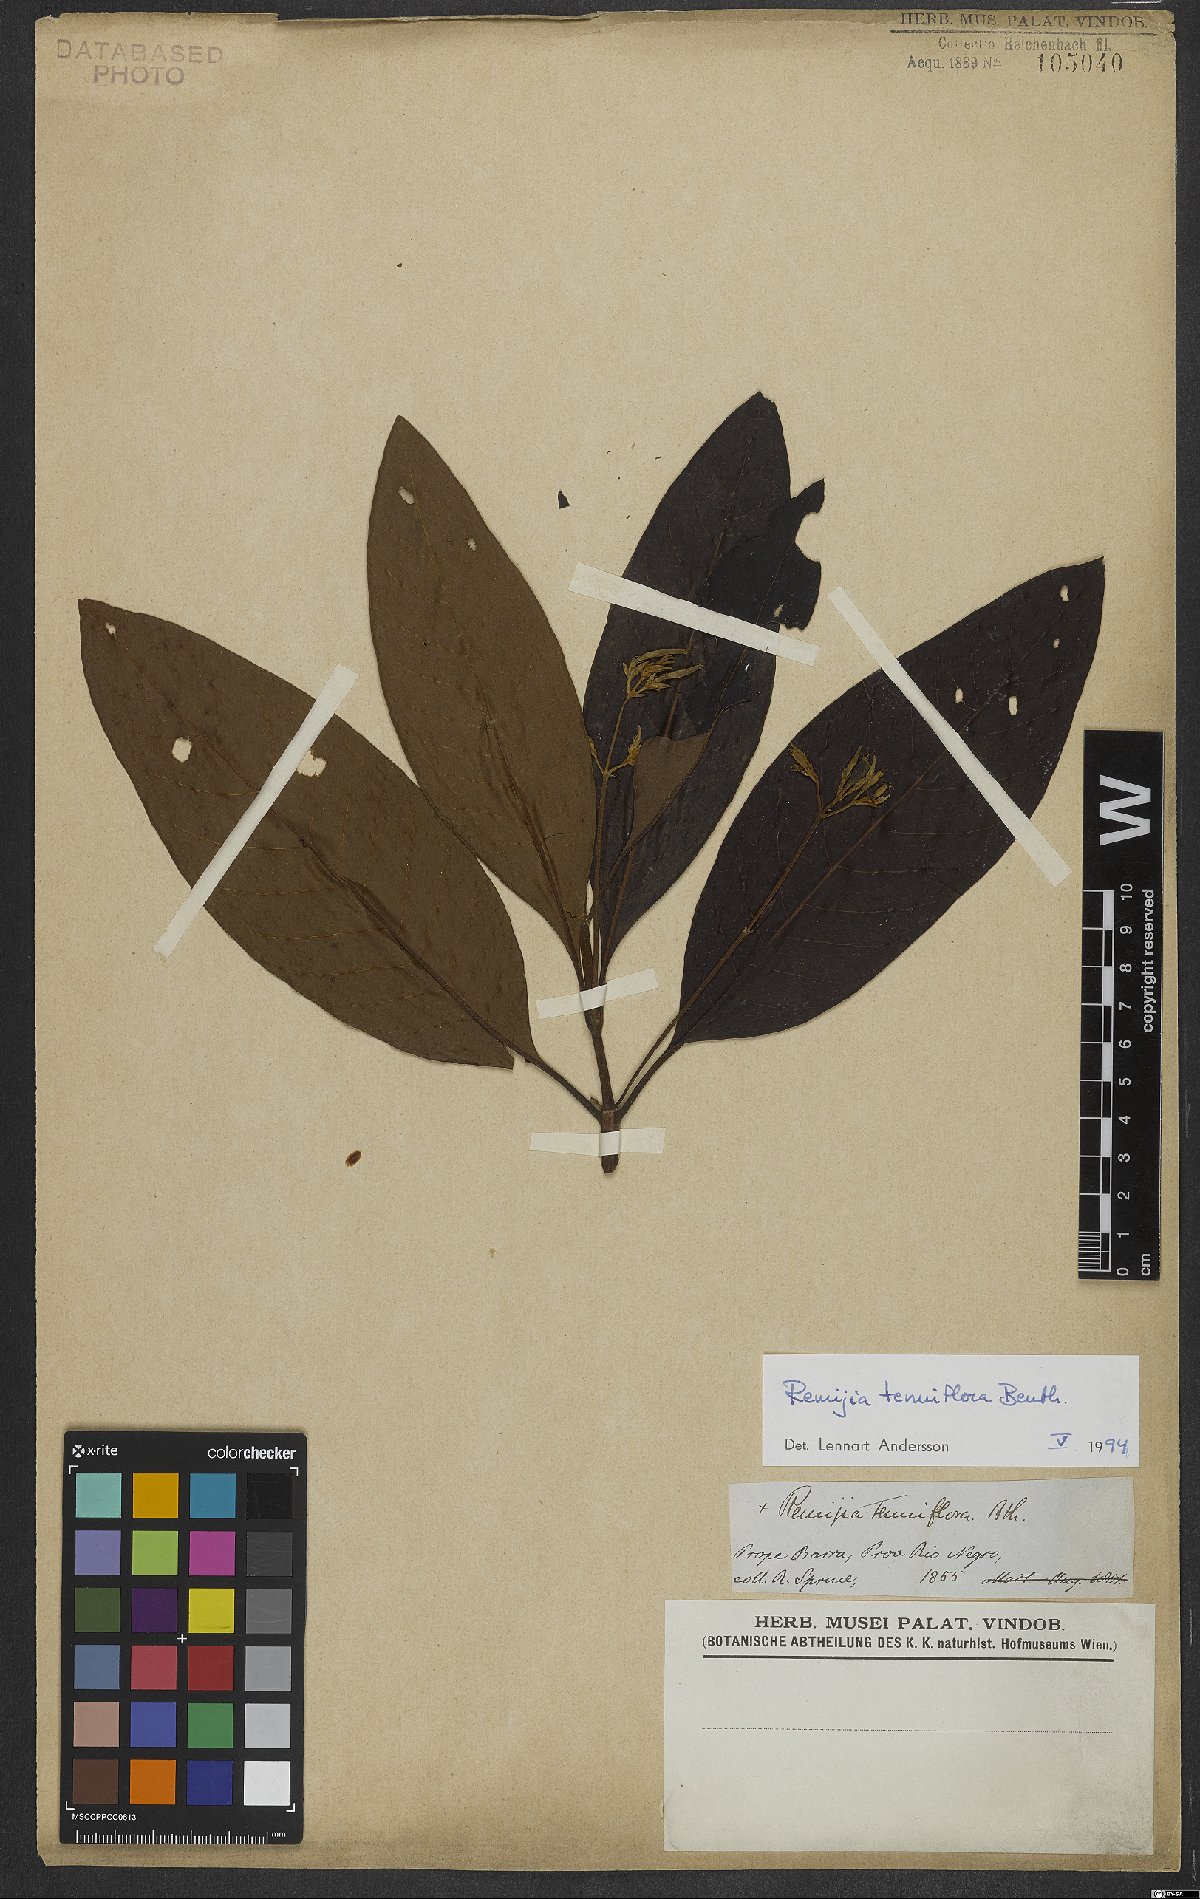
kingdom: Plantae
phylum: Tracheophyta
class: Magnoliopsida
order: Gentianales
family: Rubiaceae
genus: Remijia
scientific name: Remijia tenuiflora
